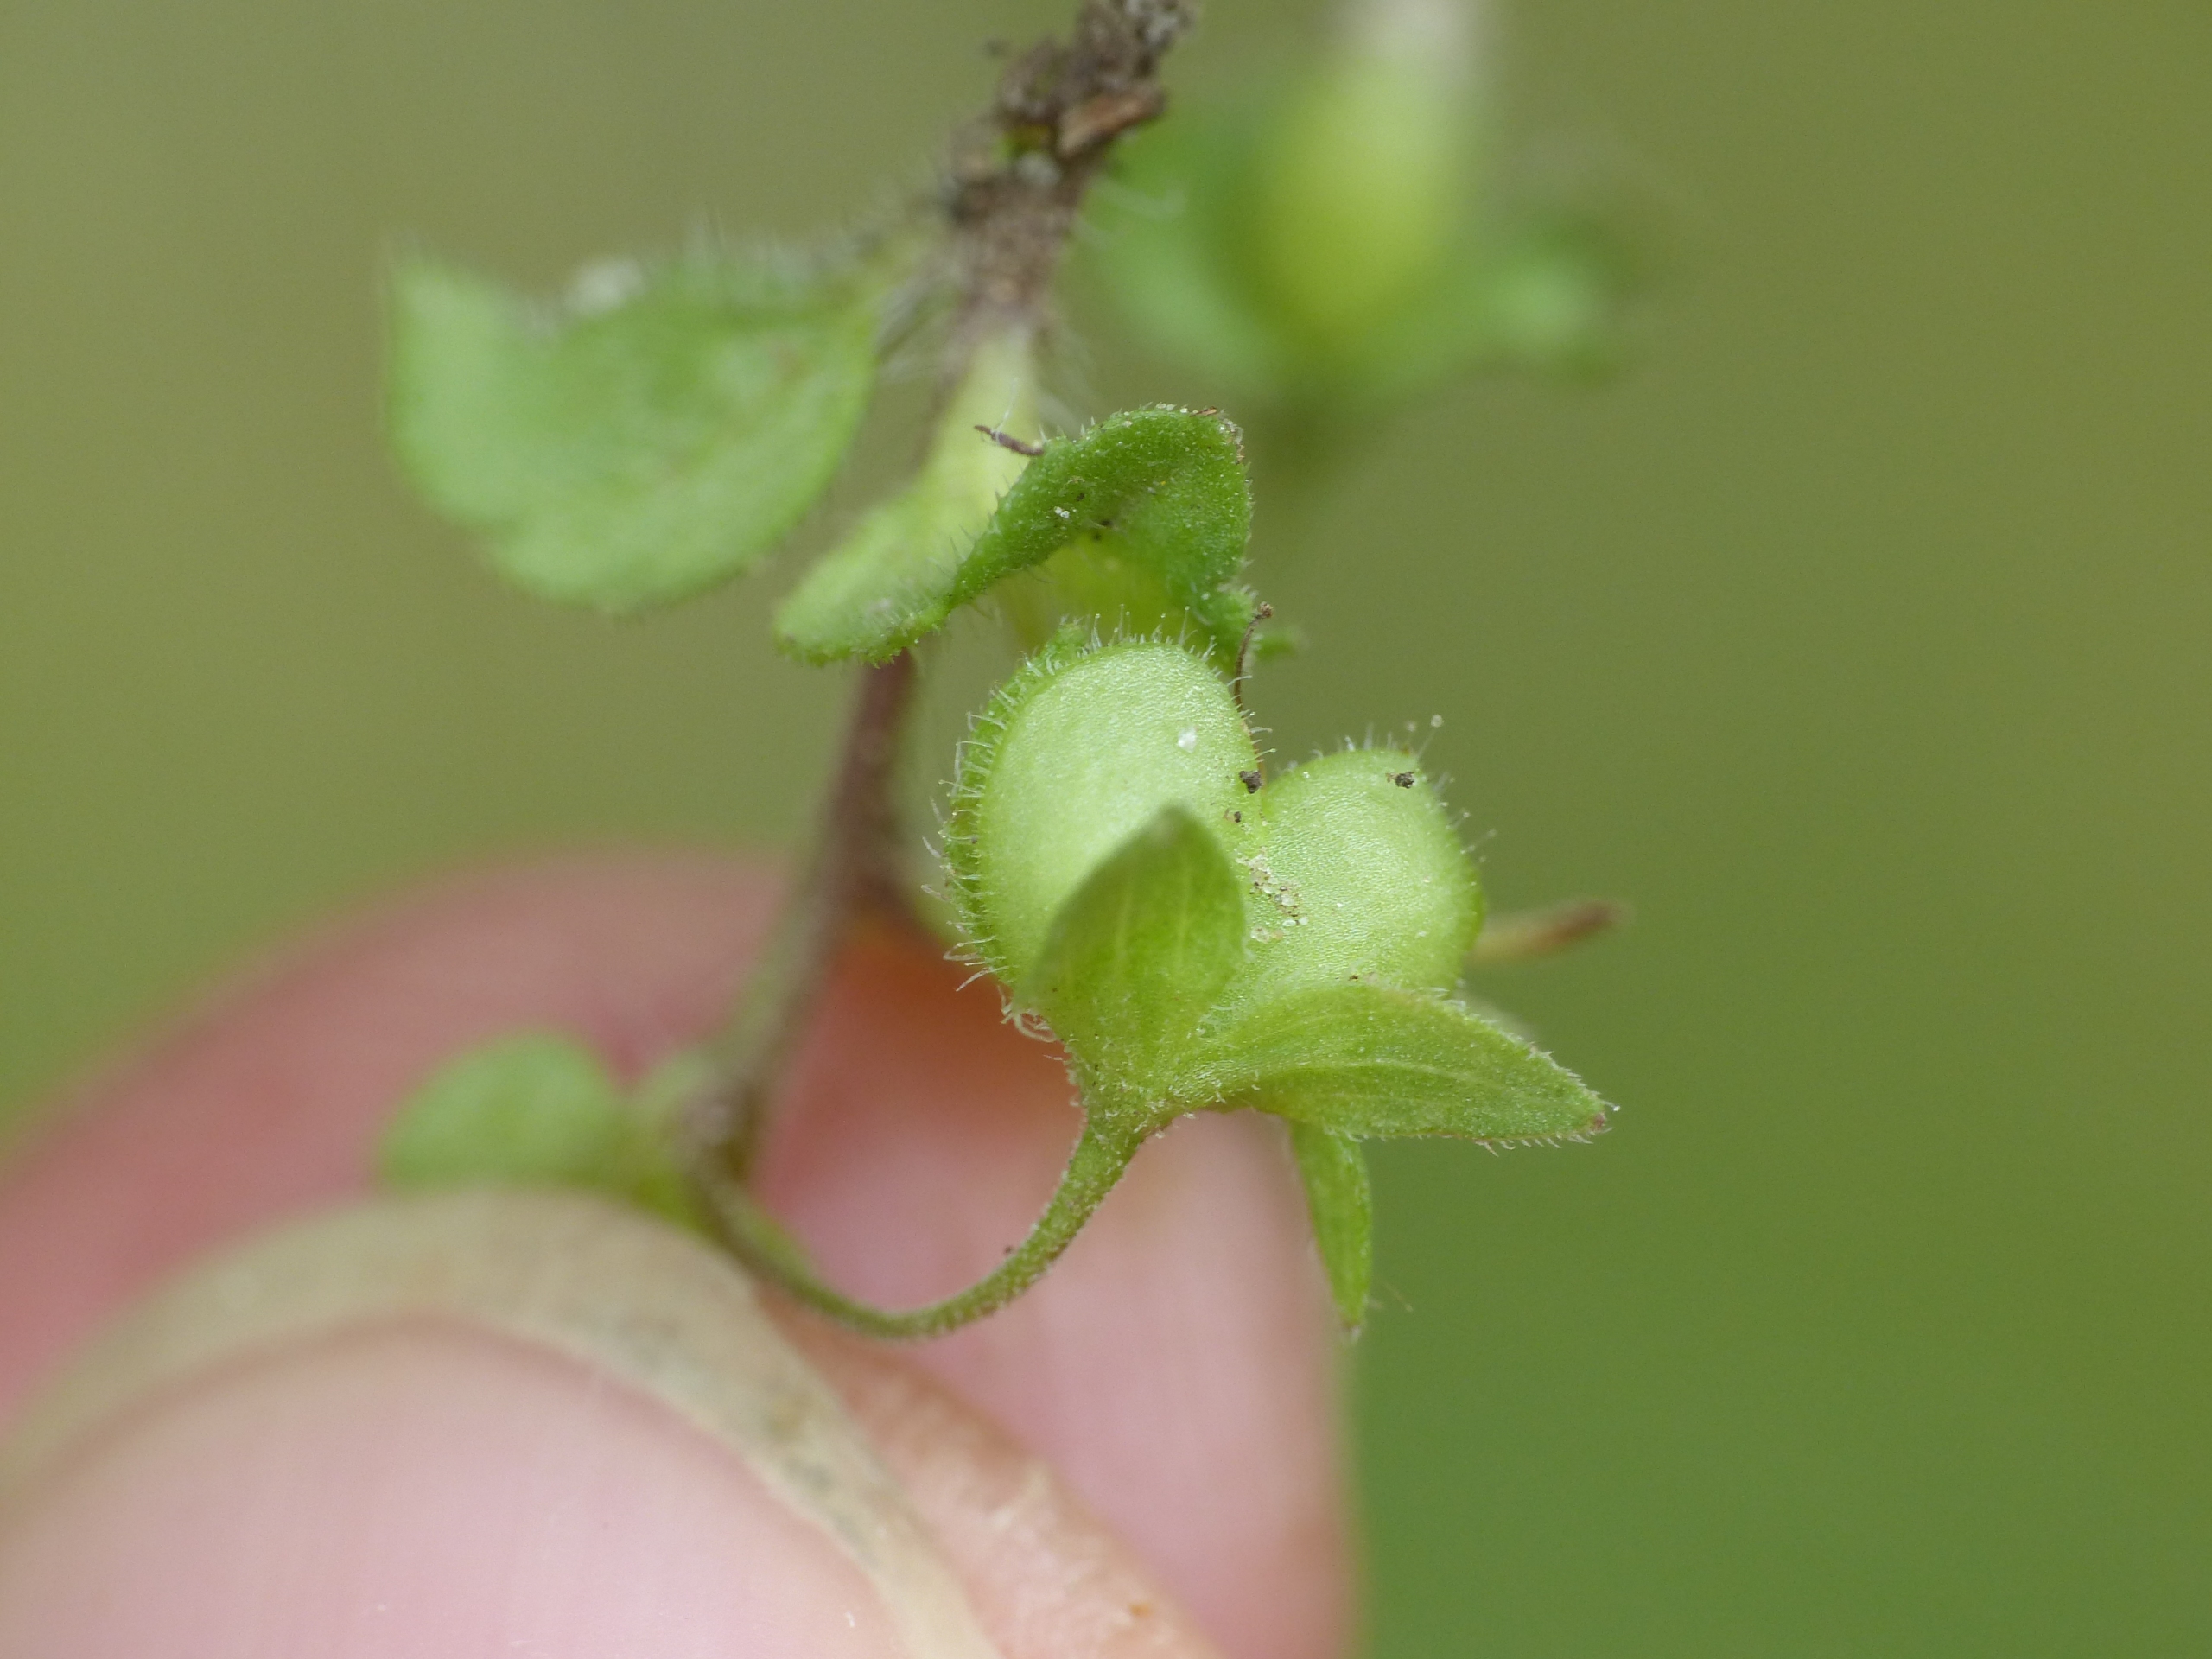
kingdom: Plantae
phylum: Tracheophyta
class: Magnoliopsida
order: Lamiales
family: Plantaginaceae
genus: Veronica
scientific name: Veronica persica
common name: Storkronet ærenpris
